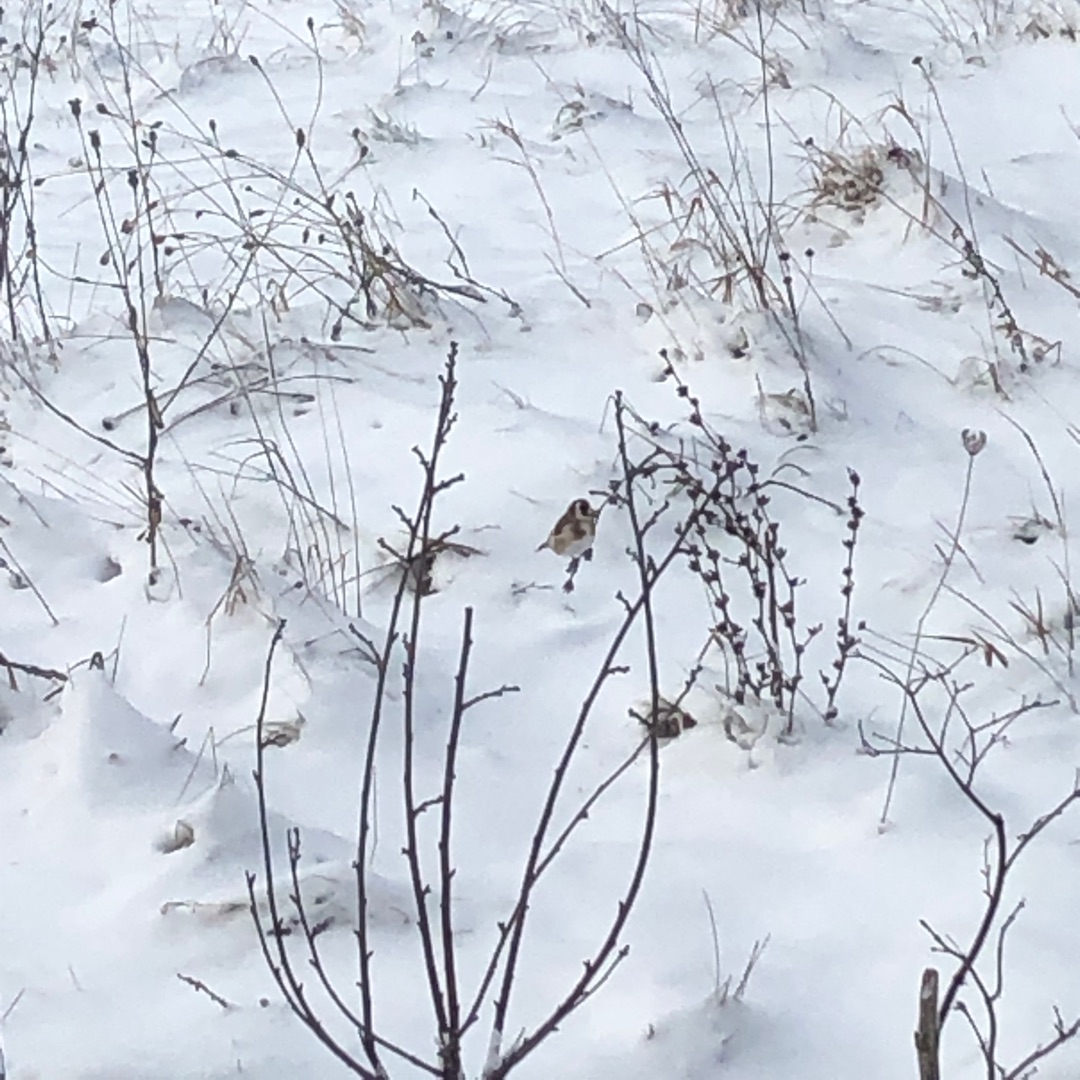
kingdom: Animalia
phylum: Chordata
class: Aves
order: Passeriformes
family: Fringillidae
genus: Carduelis
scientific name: Carduelis carduelis
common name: Stillits
